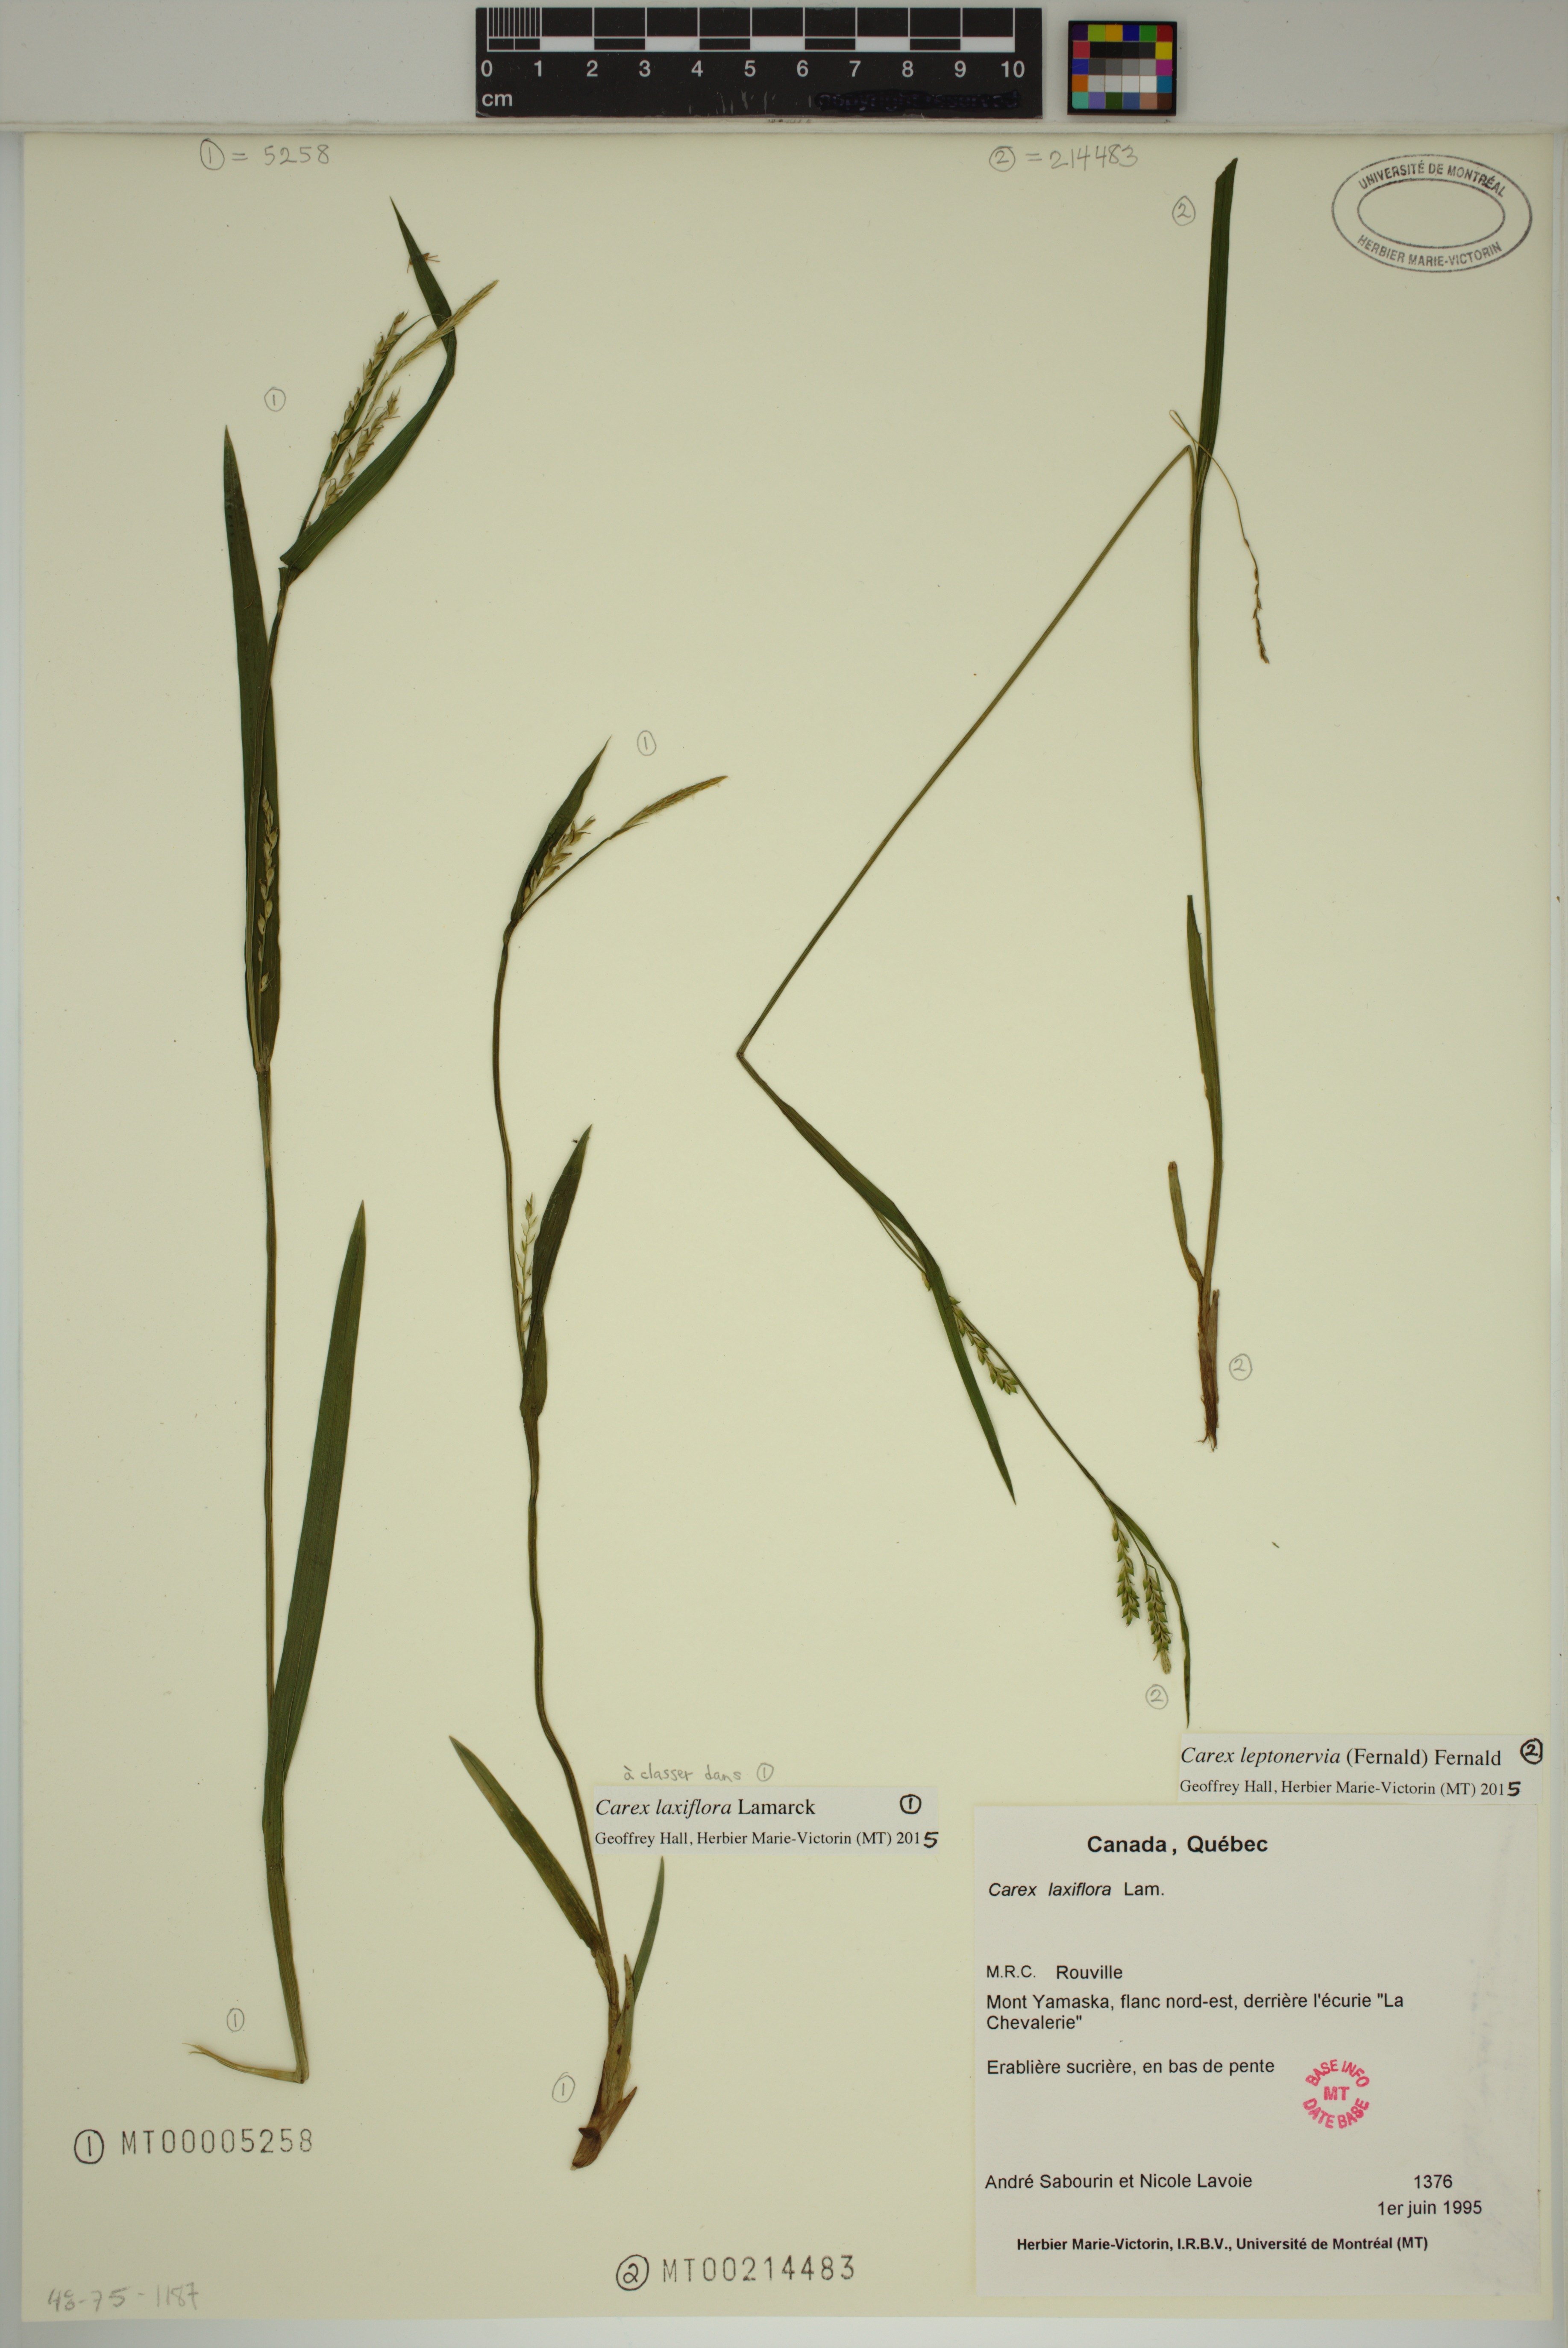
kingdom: Plantae
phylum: Tracheophyta
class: Liliopsida
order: Poales
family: Cyperaceae
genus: Carex
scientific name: Carex laxiflora
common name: Beech wood sedge
